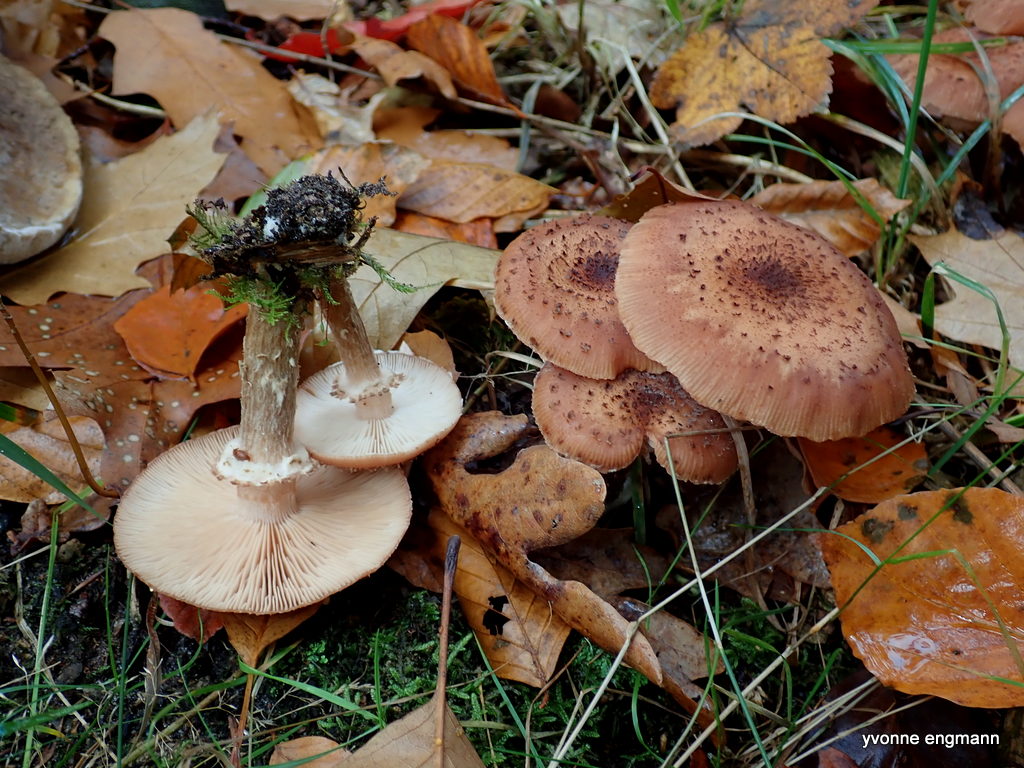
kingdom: Fungi
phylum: Basidiomycota
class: Agaricomycetes
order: Agaricales
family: Physalacriaceae
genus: Armillaria
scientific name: Armillaria ostoyae
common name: mørk honningsvamp
